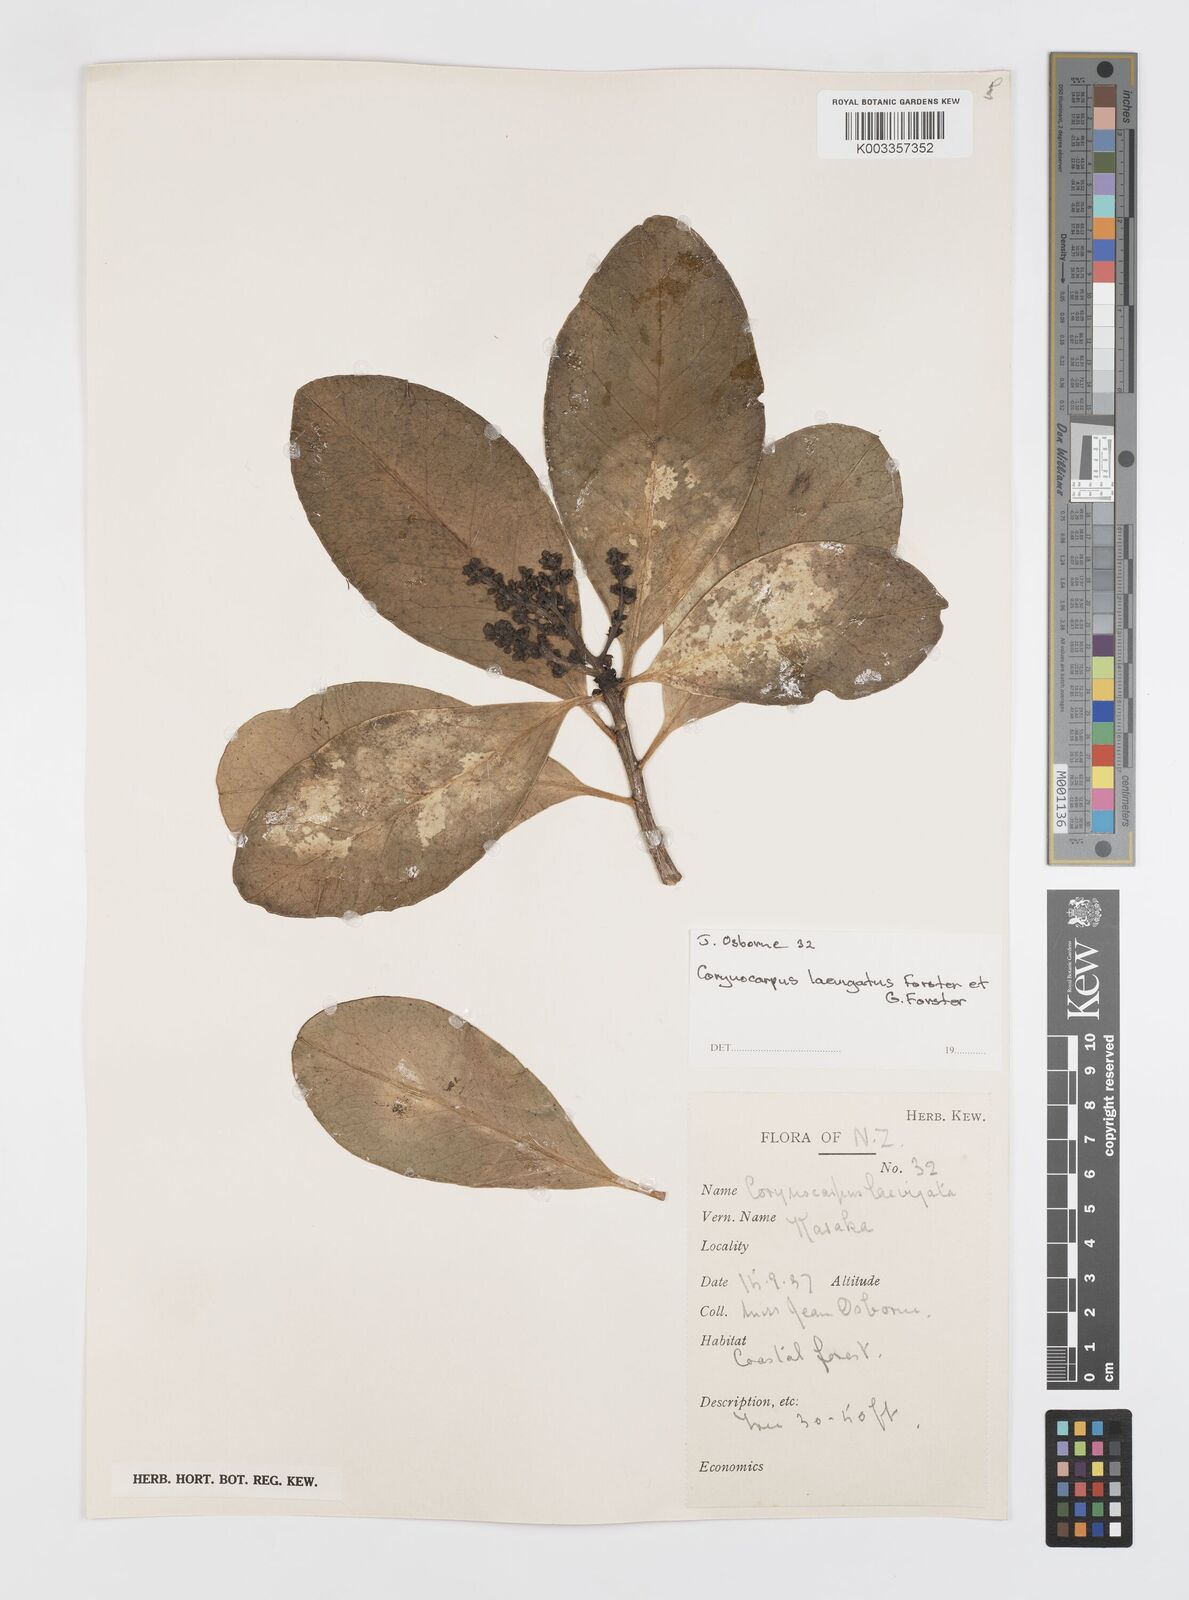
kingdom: Plantae
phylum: Tracheophyta
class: Magnoliopsida
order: Cucurbitales
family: Corynocarpaceae
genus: Corynocarpus
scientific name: Corynocarpus laevigatus
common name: New zealand laurel
